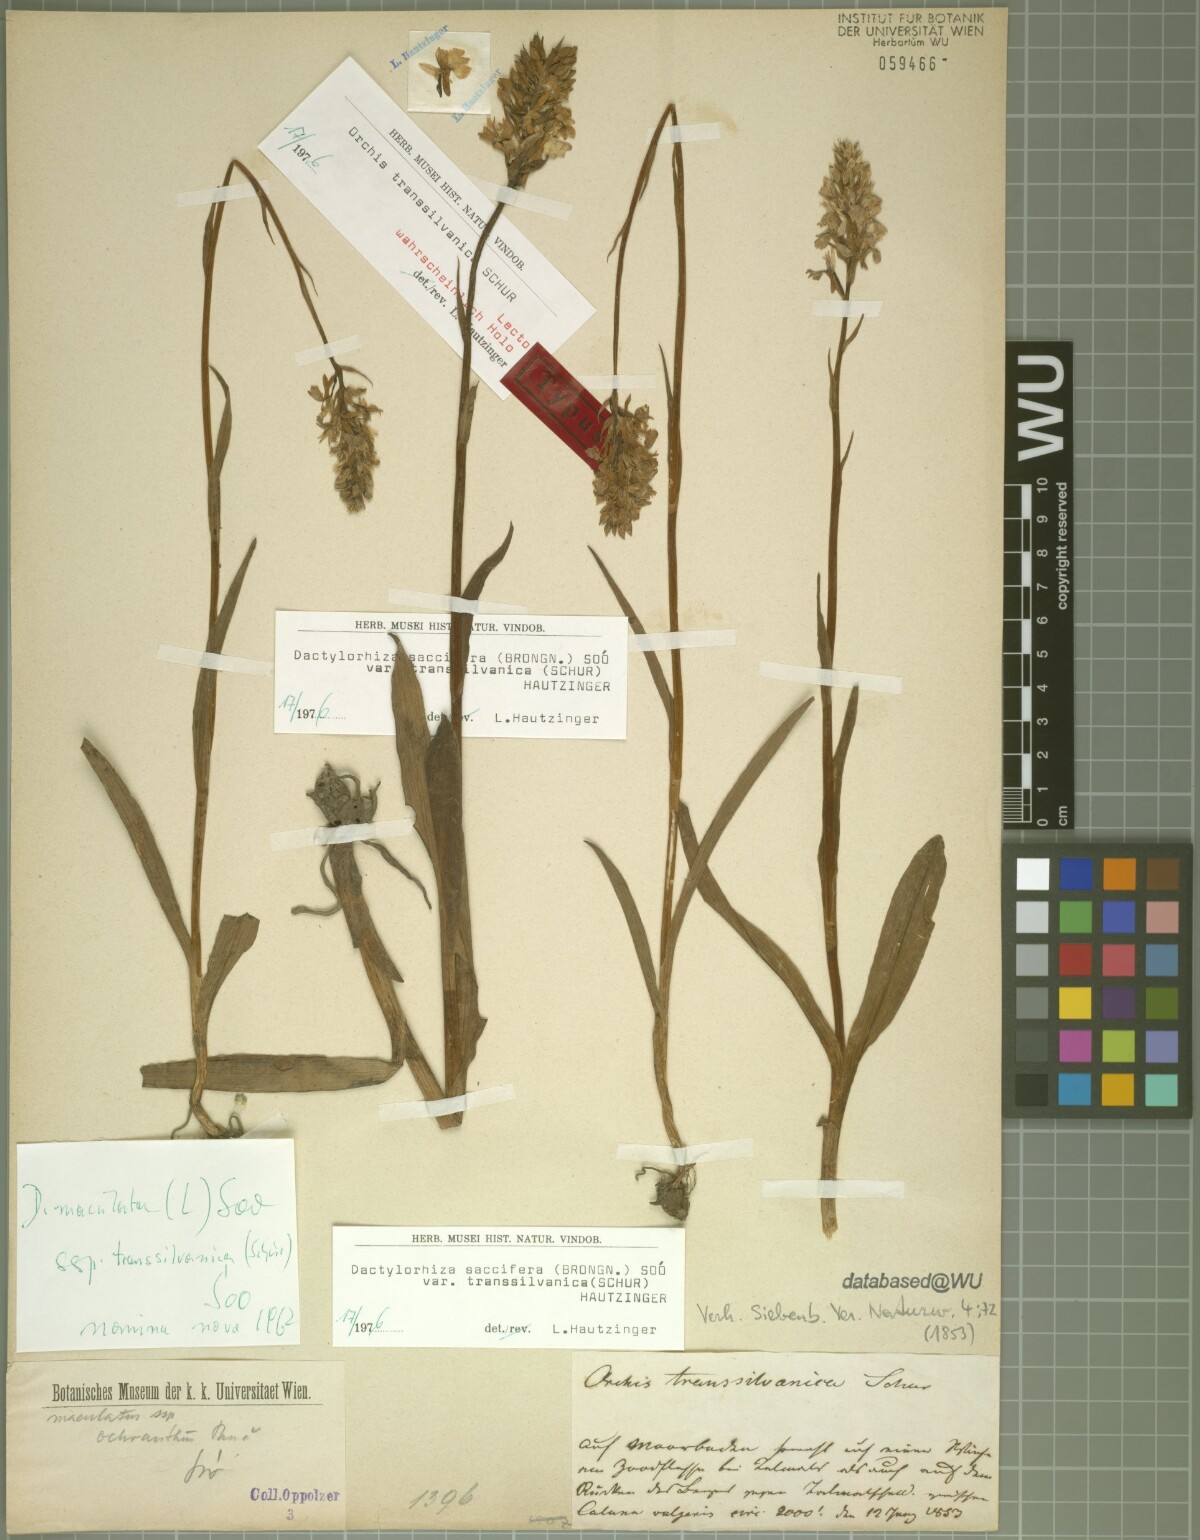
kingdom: Plantae
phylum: Tracheophyta
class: Liliopsida
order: Asparagales
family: Orchidaceae
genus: Dactylorhiza
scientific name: Dactylorhiza maculata
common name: Heath spotted-orchid
